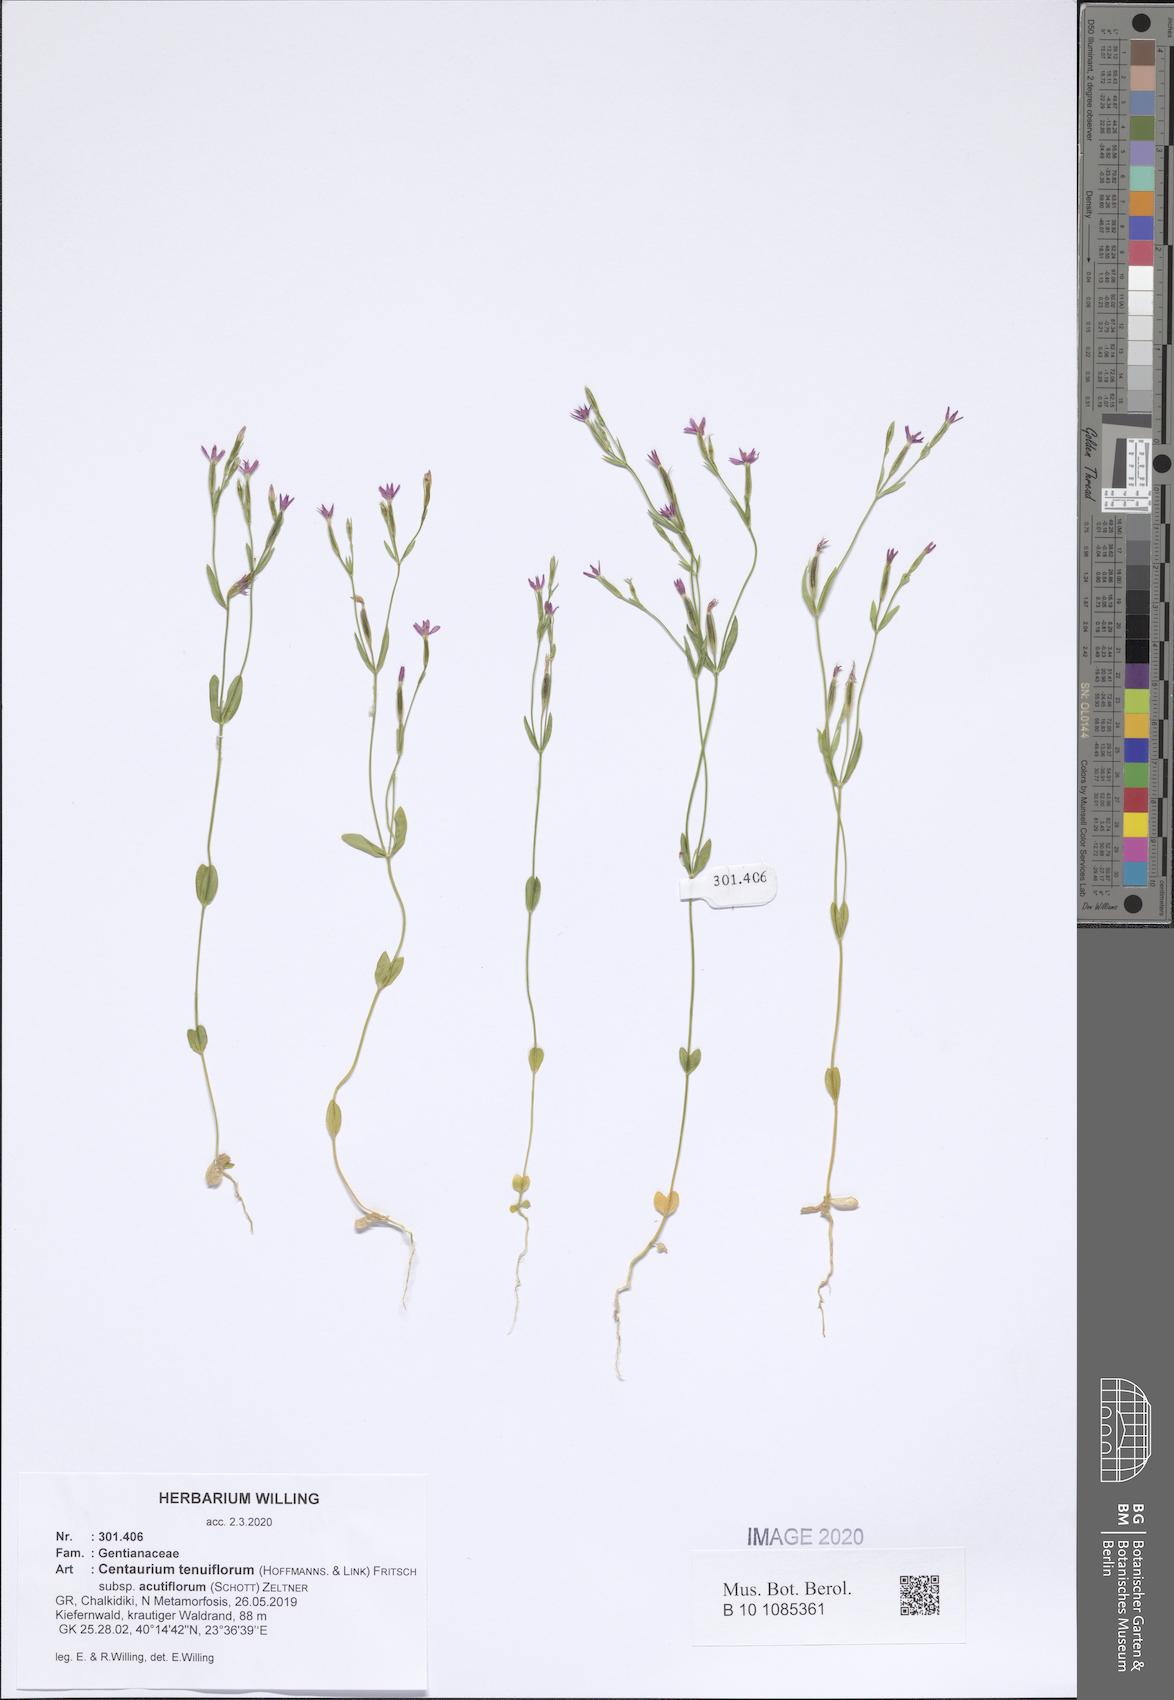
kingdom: Plantae
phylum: Tracheophyta
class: Magnoliopsida
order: Gentianales
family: Gentianaceae
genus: Centaurium
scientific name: Centaurium tenuiflorum
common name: Slender centaury
